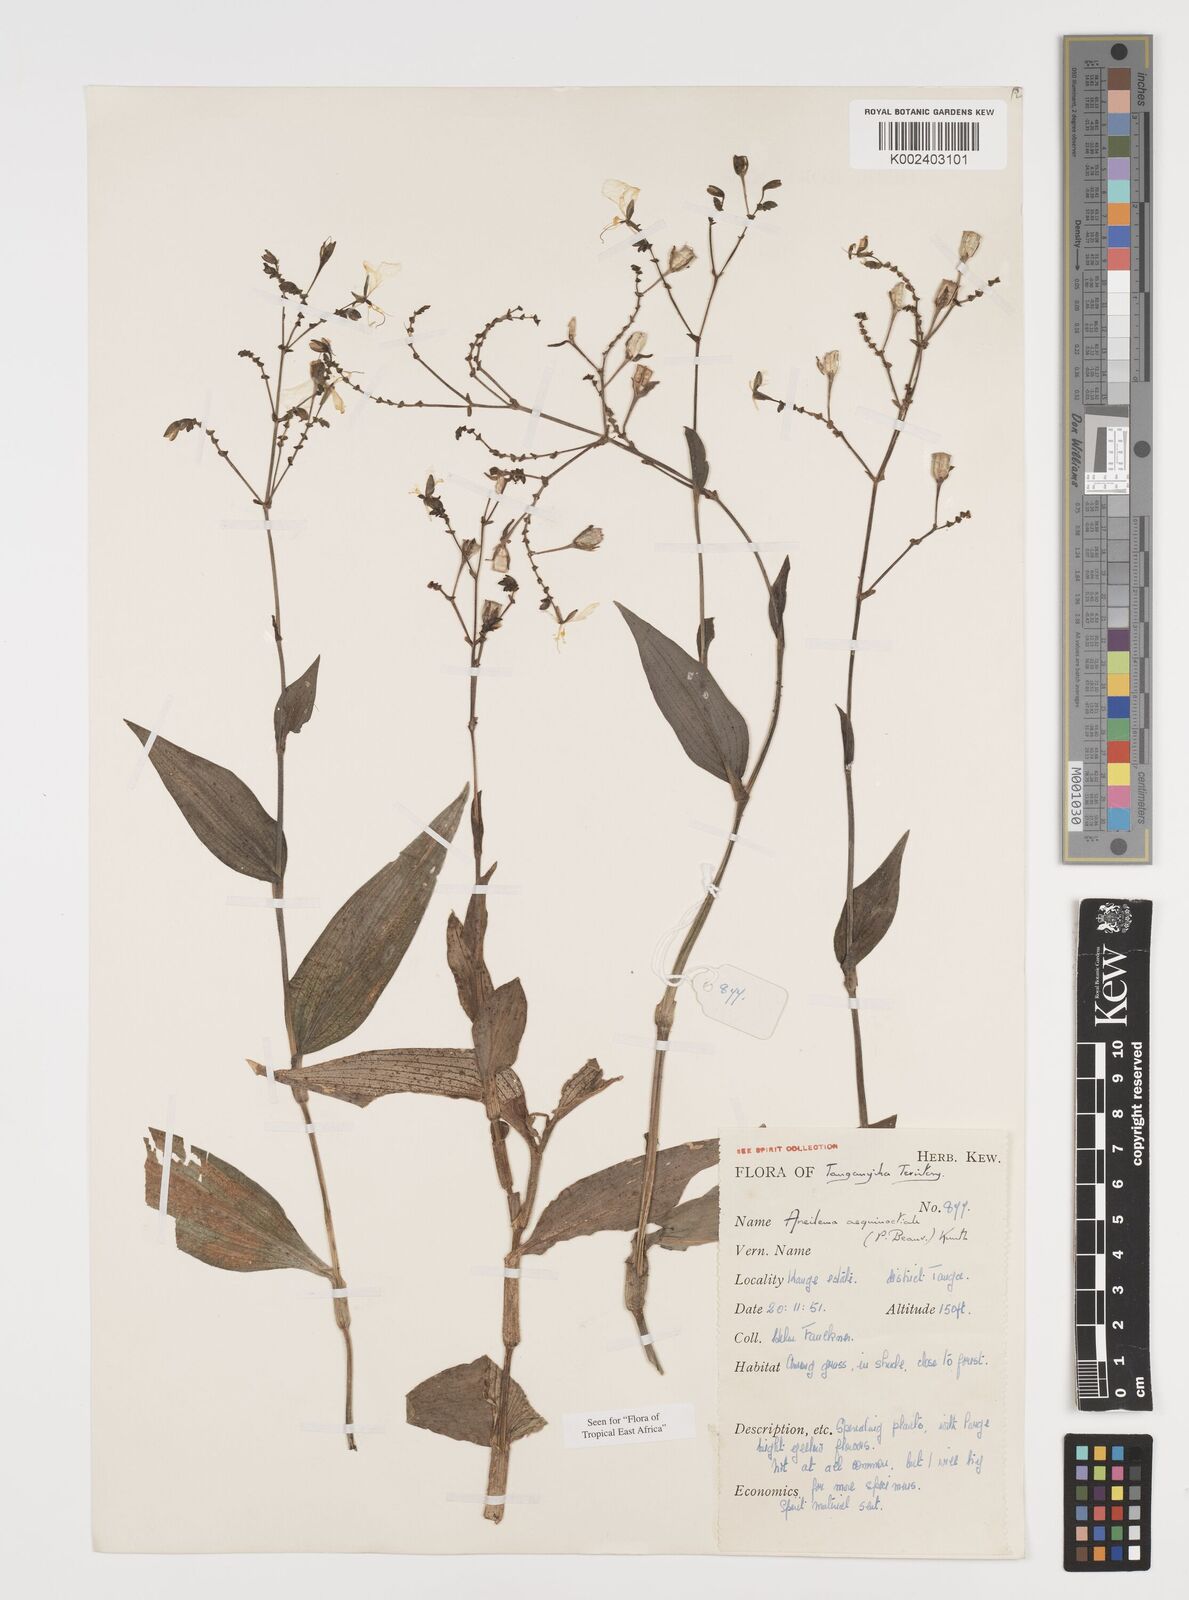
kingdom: Plantae
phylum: Tracheophyta
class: Liliopsida
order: Commelinales
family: Commelinaceae
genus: Aneilema
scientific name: Aneilema aequinoctiale
